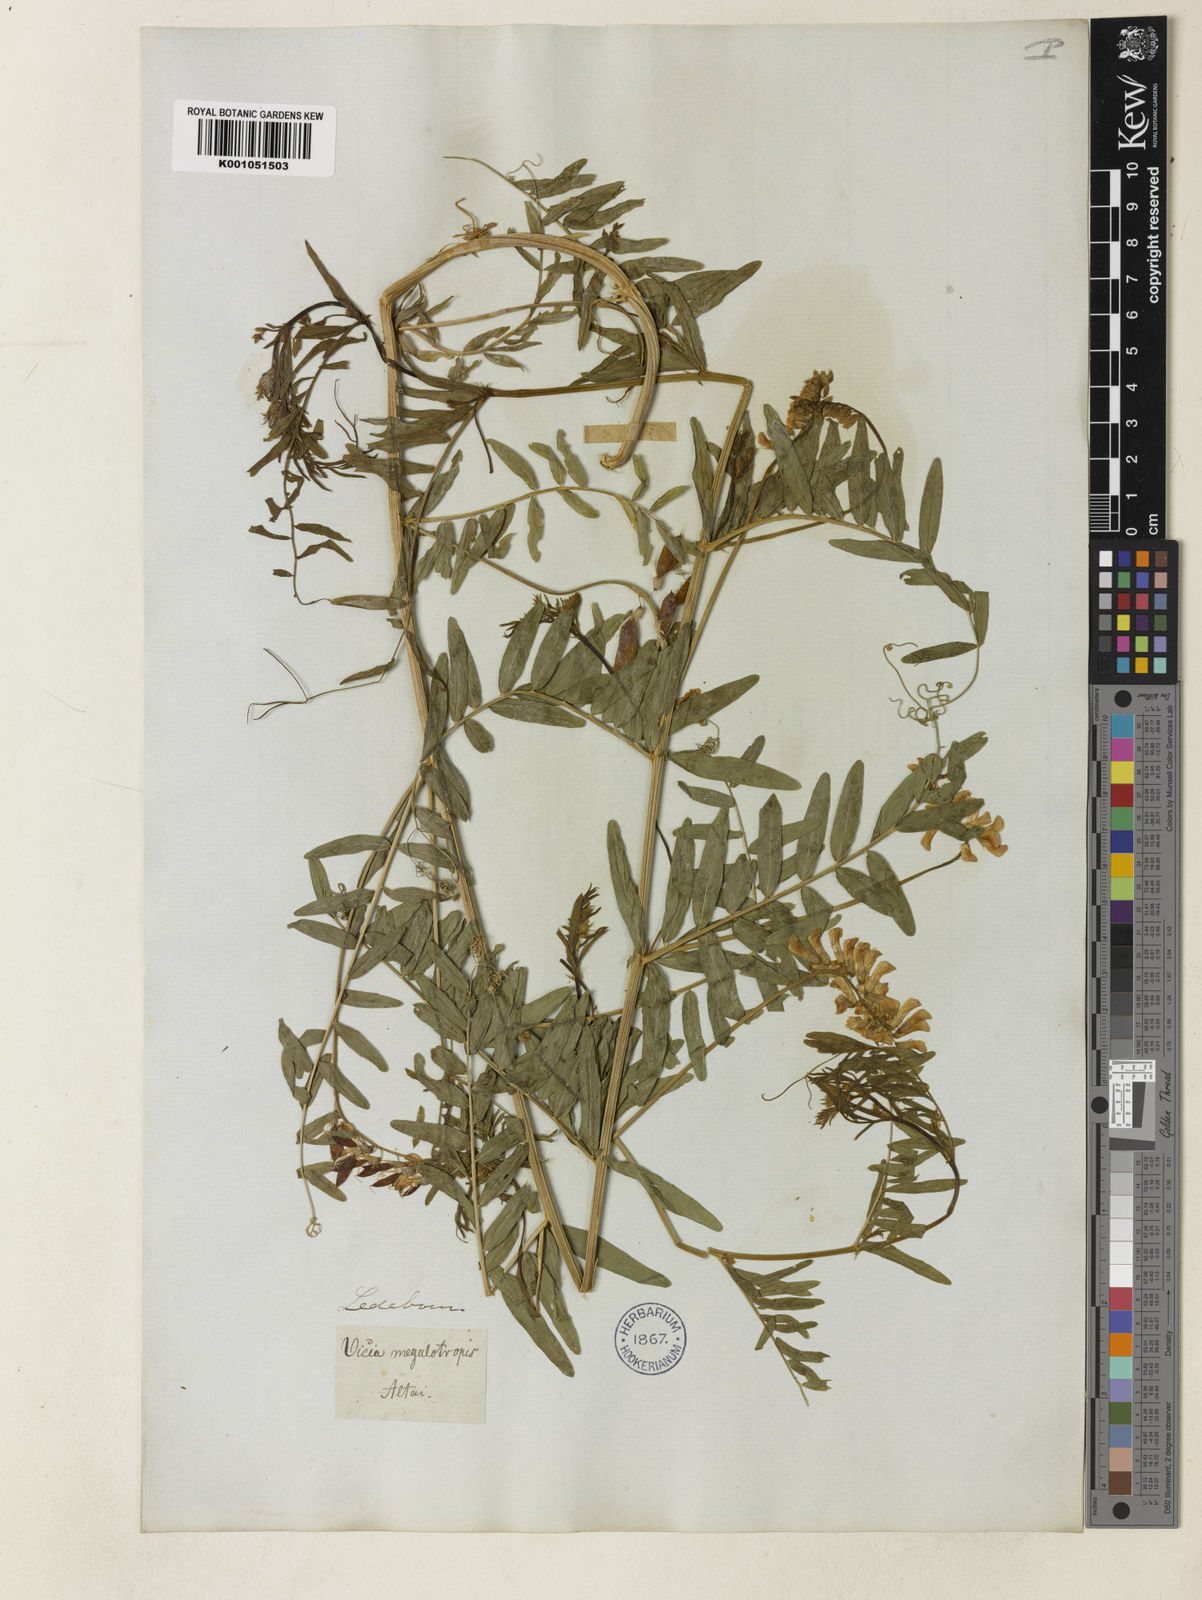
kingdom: Plantae
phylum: Tracheophyta
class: Magnoliopsida
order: Fabales
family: Fabaceae
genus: Vicia
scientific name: Vicia megalotropis
